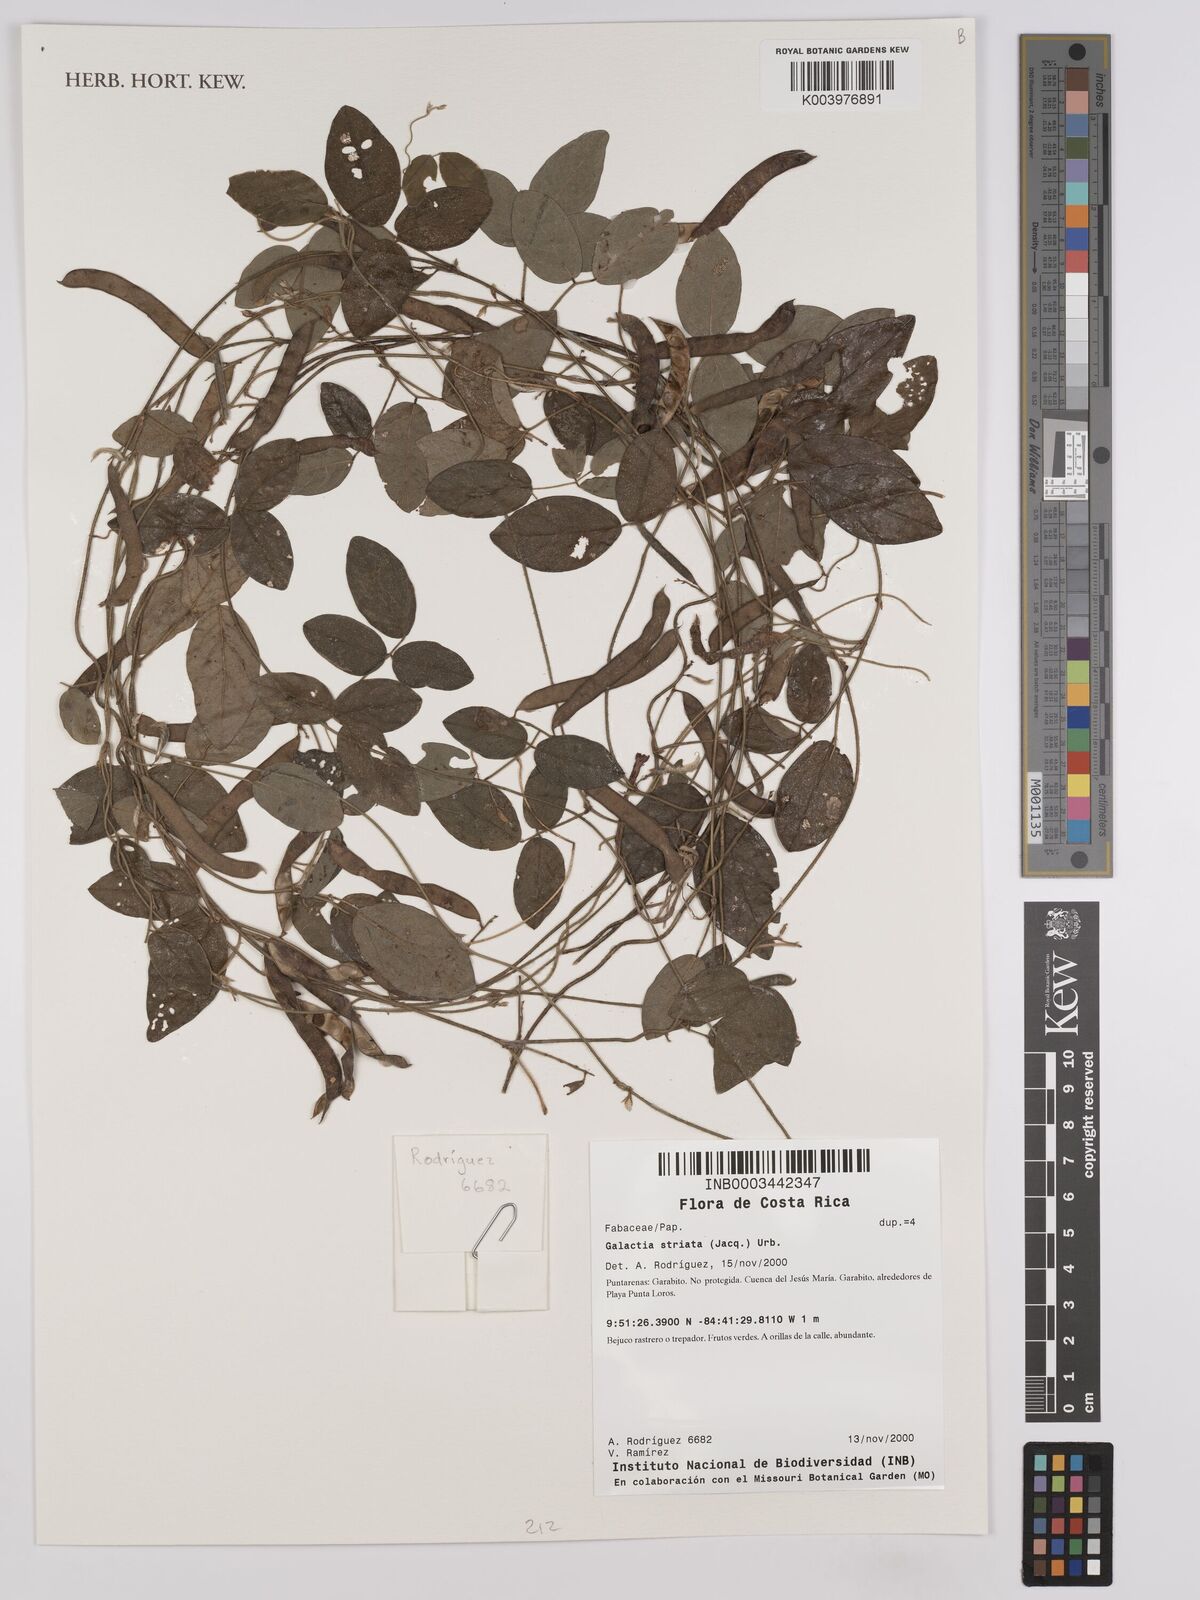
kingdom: Plantae
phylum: Tracheophyta
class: Magnoliopsida
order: Fabales
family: Fabaceae
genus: Galactia
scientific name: Galactia striata
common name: Florida hammock milkpea
